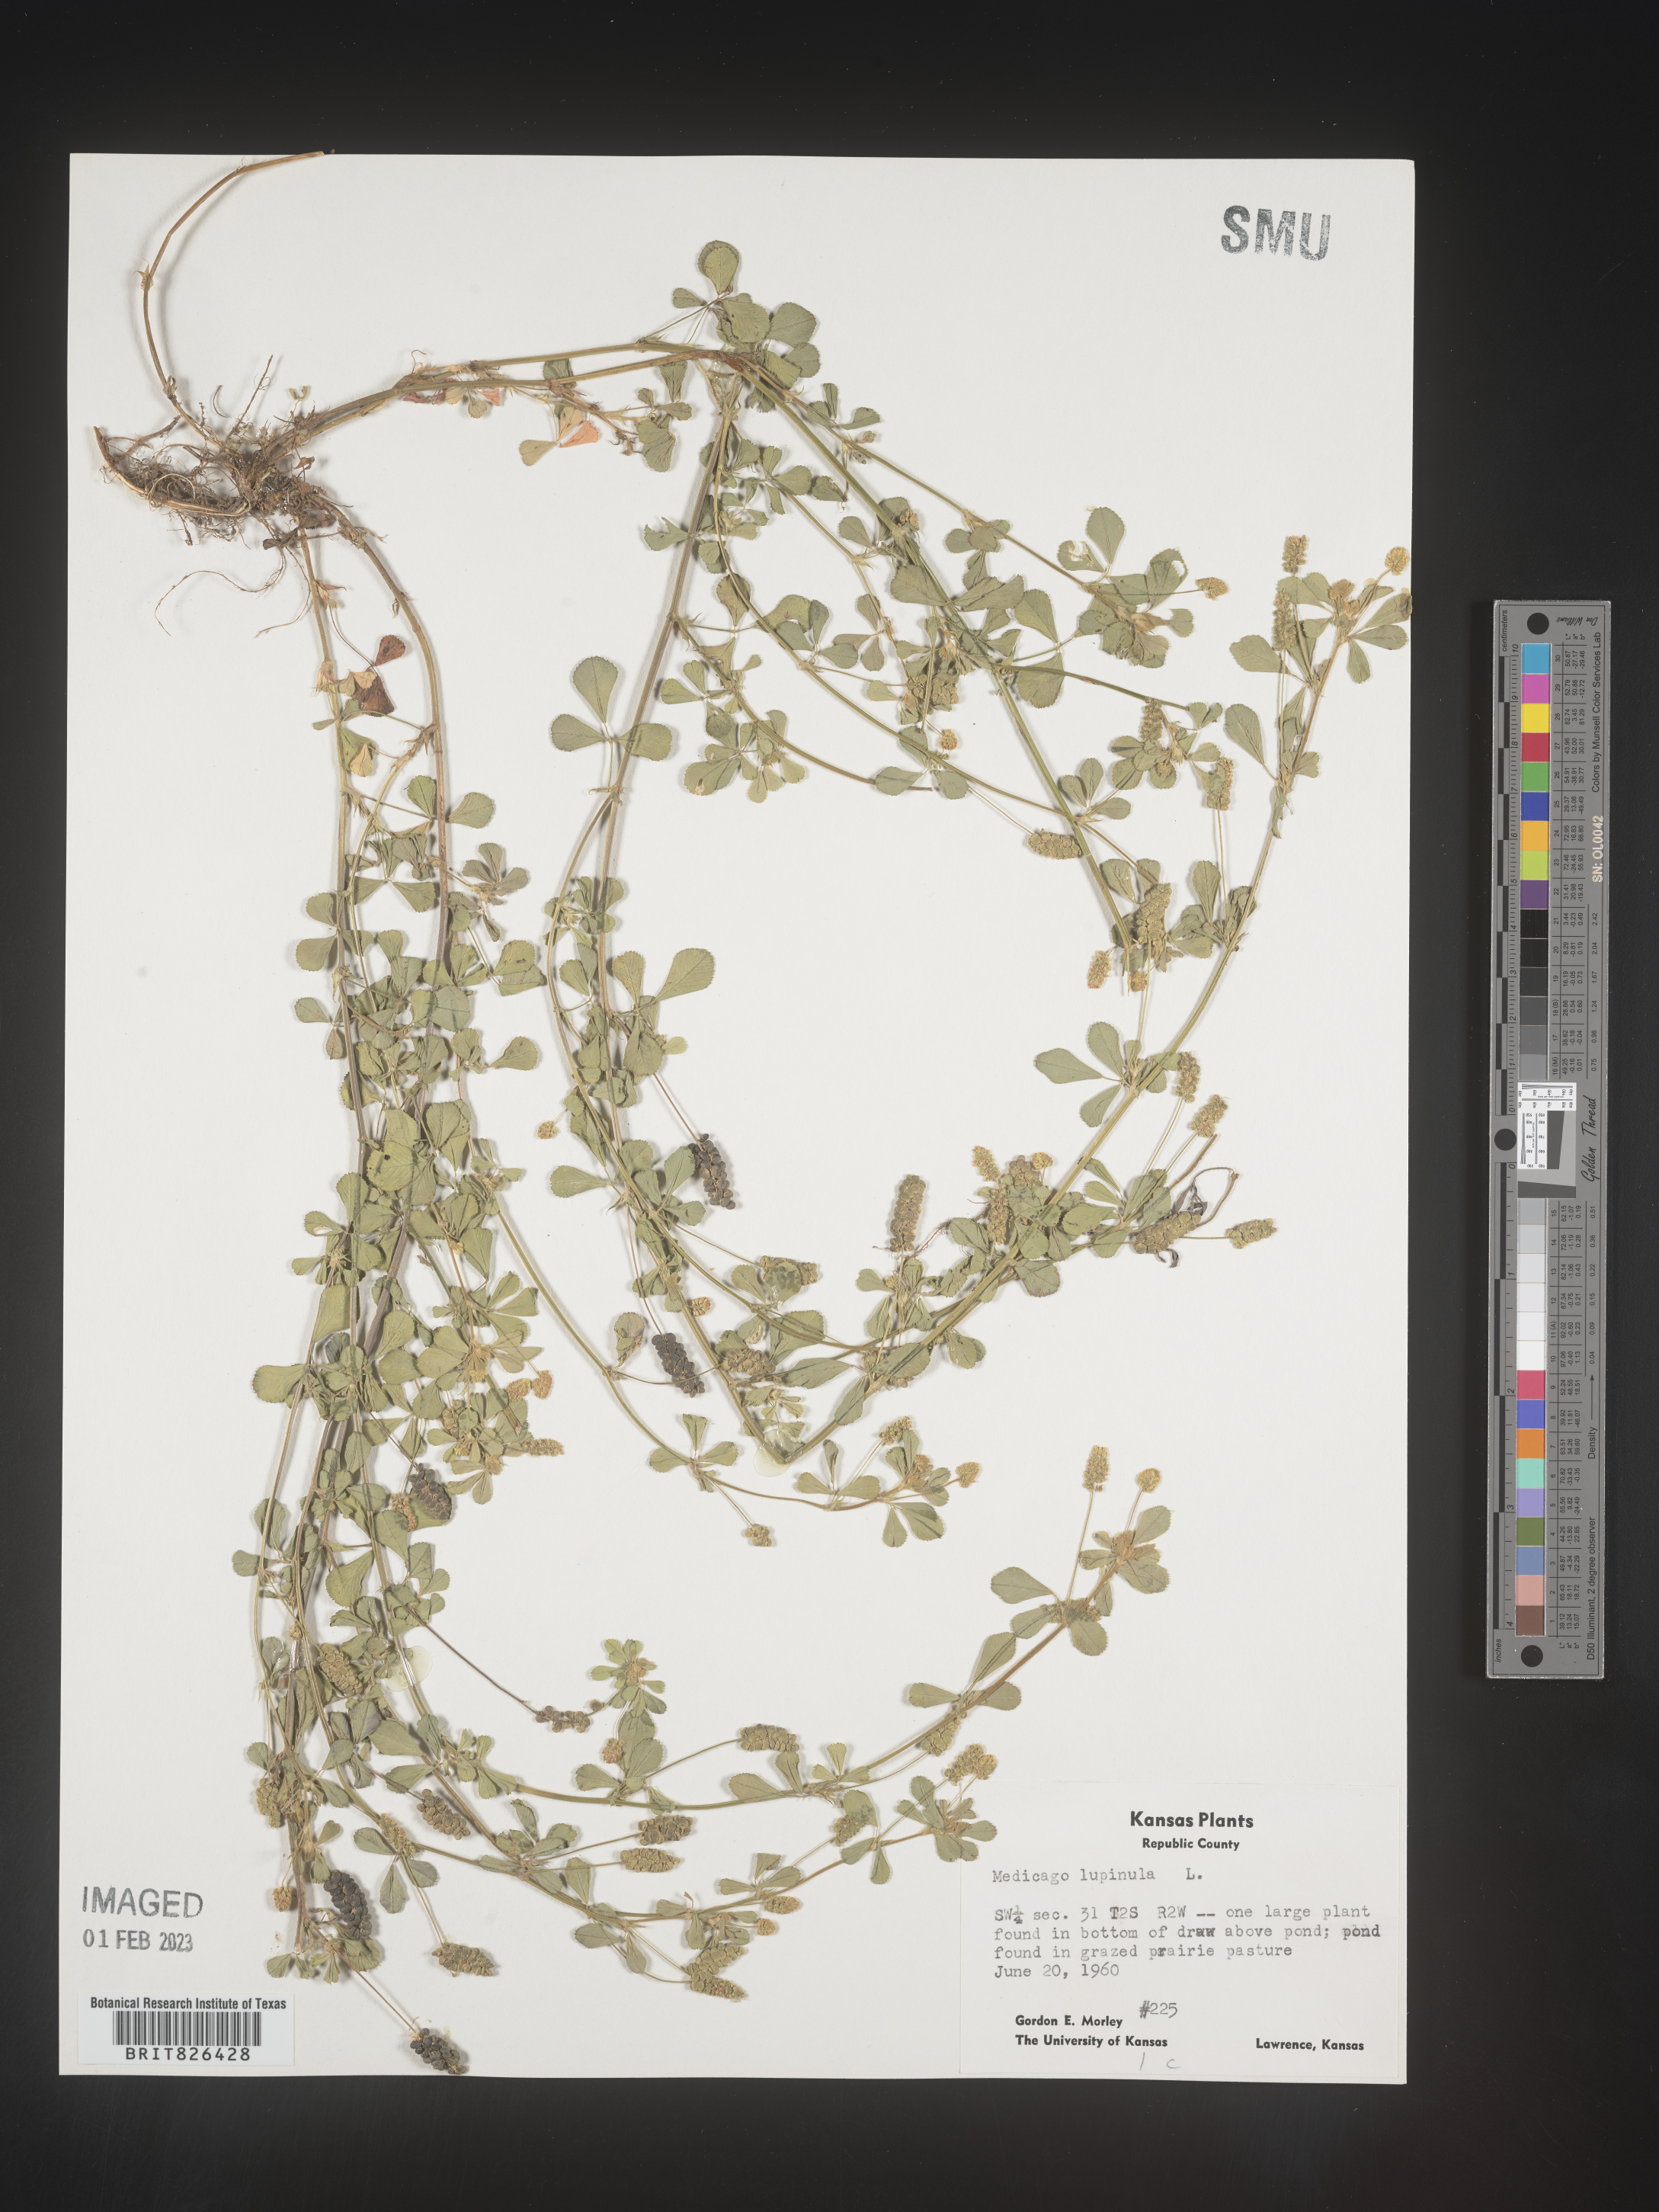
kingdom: Plantae
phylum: Tracheophyta
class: Magnoliopsida
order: Fabales
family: Fabaceae
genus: Medicago
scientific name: Medicago lupulina
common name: Black medick
